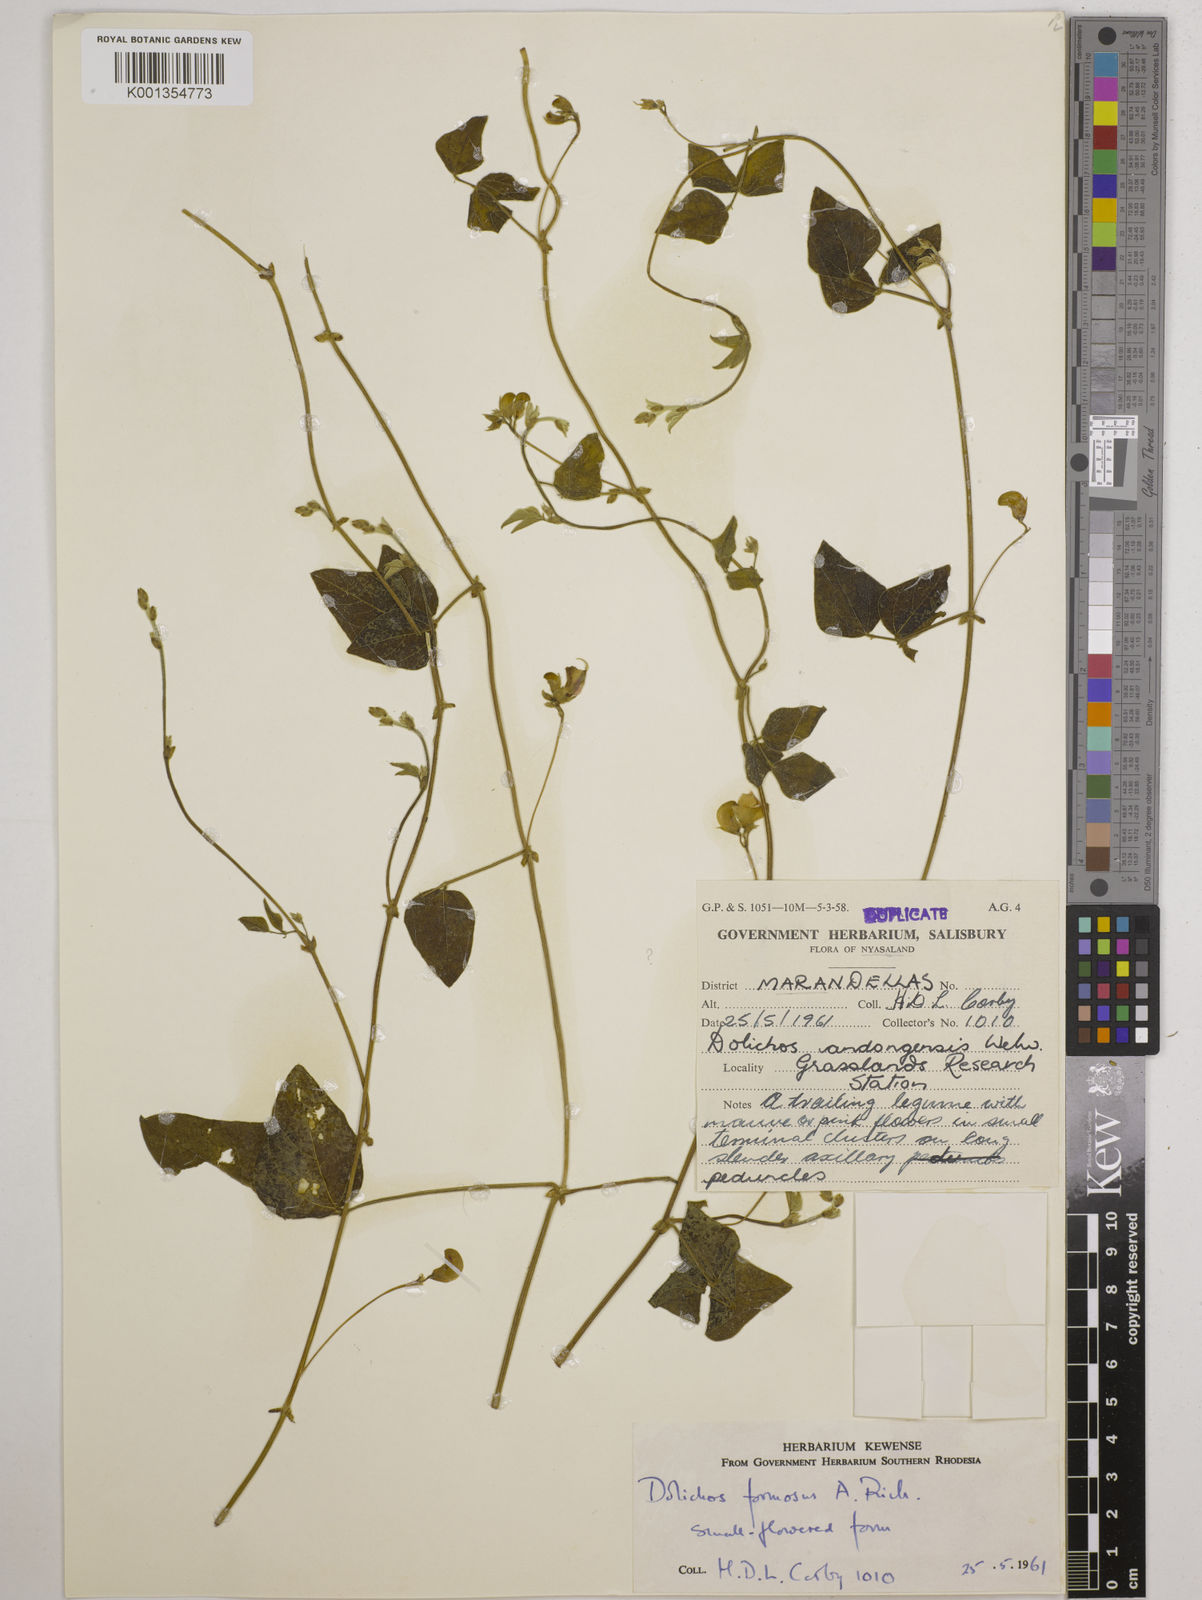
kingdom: Plantae
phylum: Tracheophyta
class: Magnoliopsida
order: Fabales
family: Fabaceae
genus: Dolichos
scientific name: Dolichos
